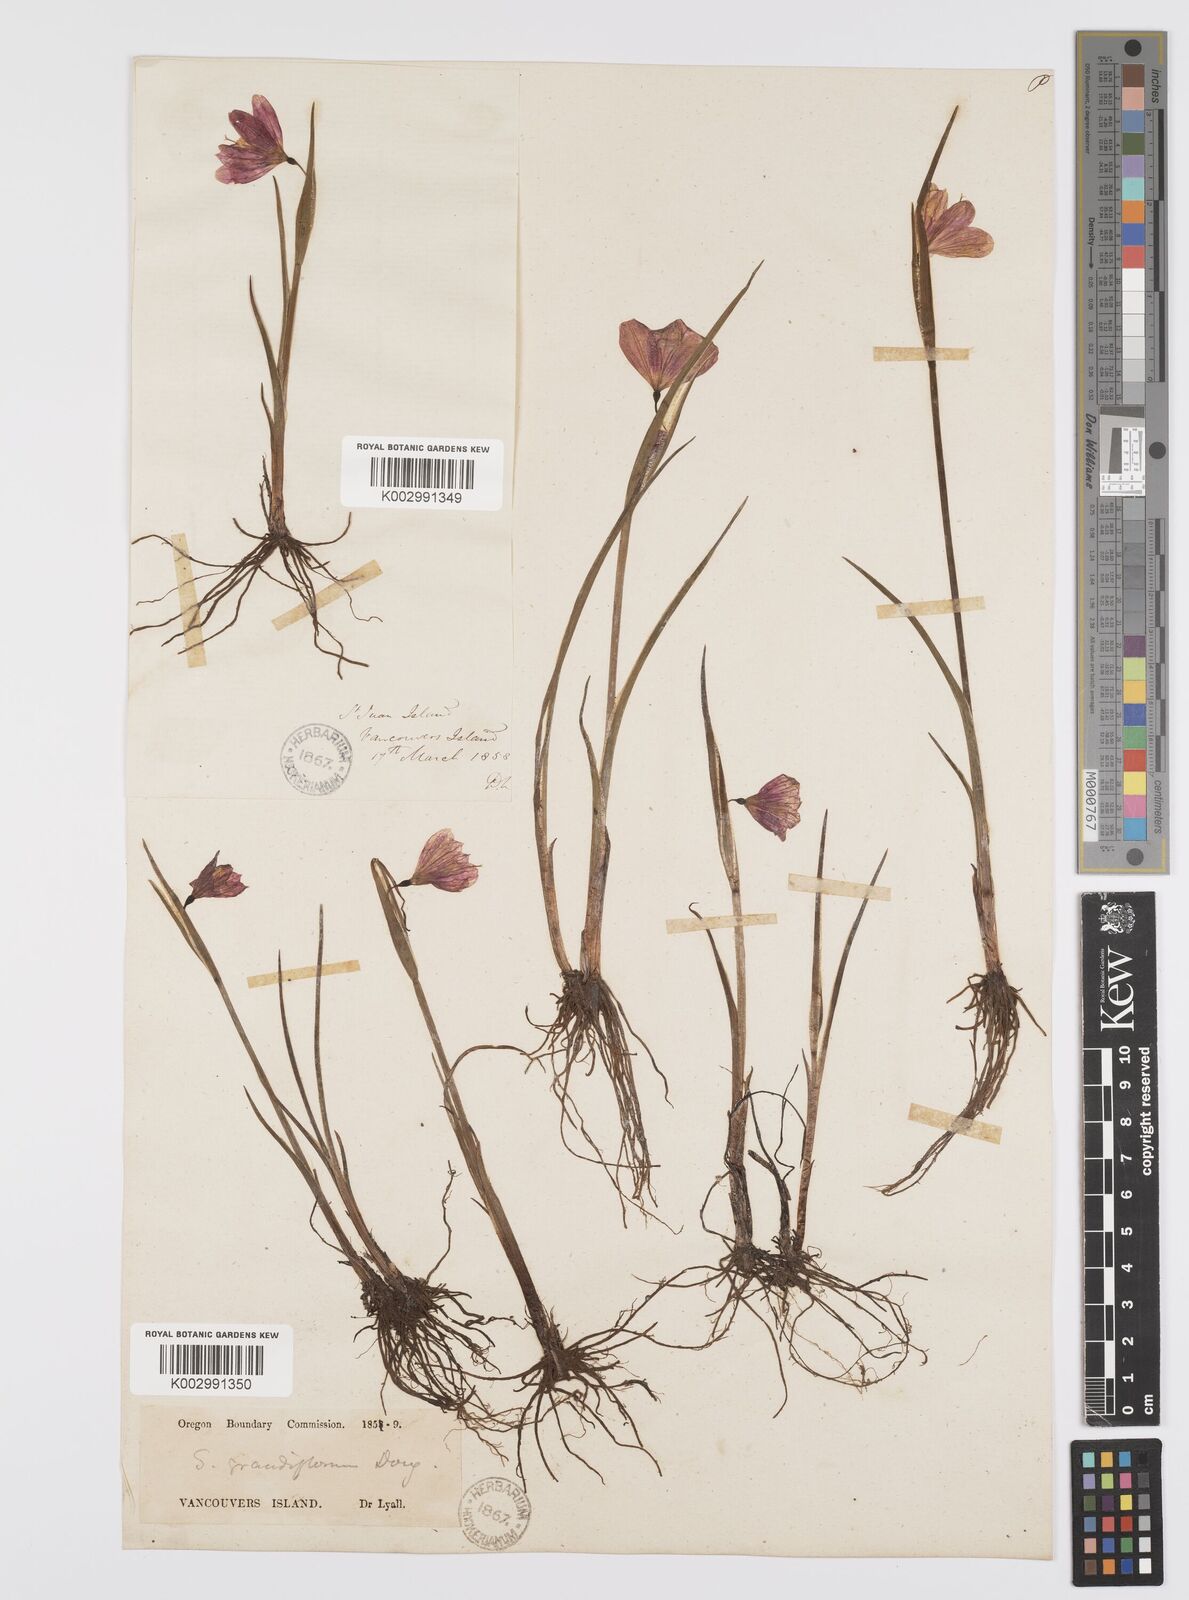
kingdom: Plantae
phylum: Tracheophyta
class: Liliopsida
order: Asparagales
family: Iridaceae
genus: Olsynium
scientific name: Olsynium douglasii
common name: Douglas' grasswidow
